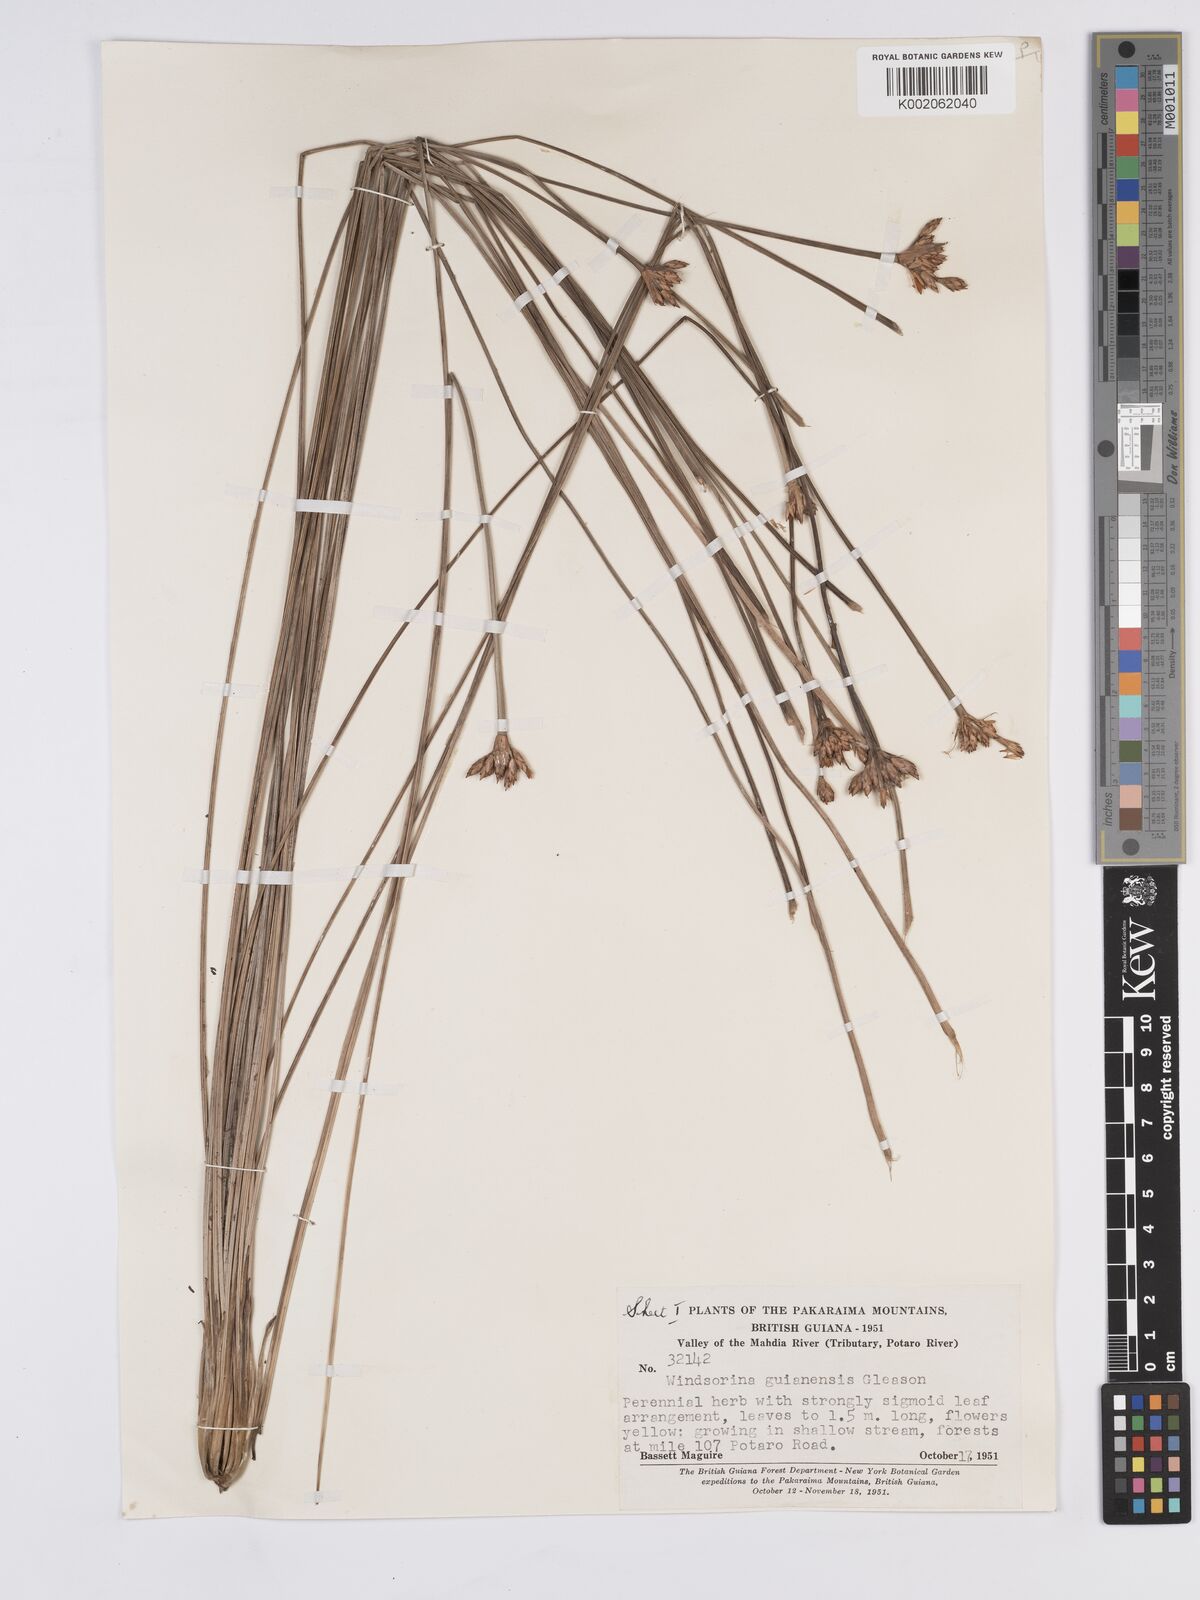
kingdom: Plantae
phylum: Tracheophyta
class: Liliopsida
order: Poales
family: Rapateaceae
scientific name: Rapateaceae
